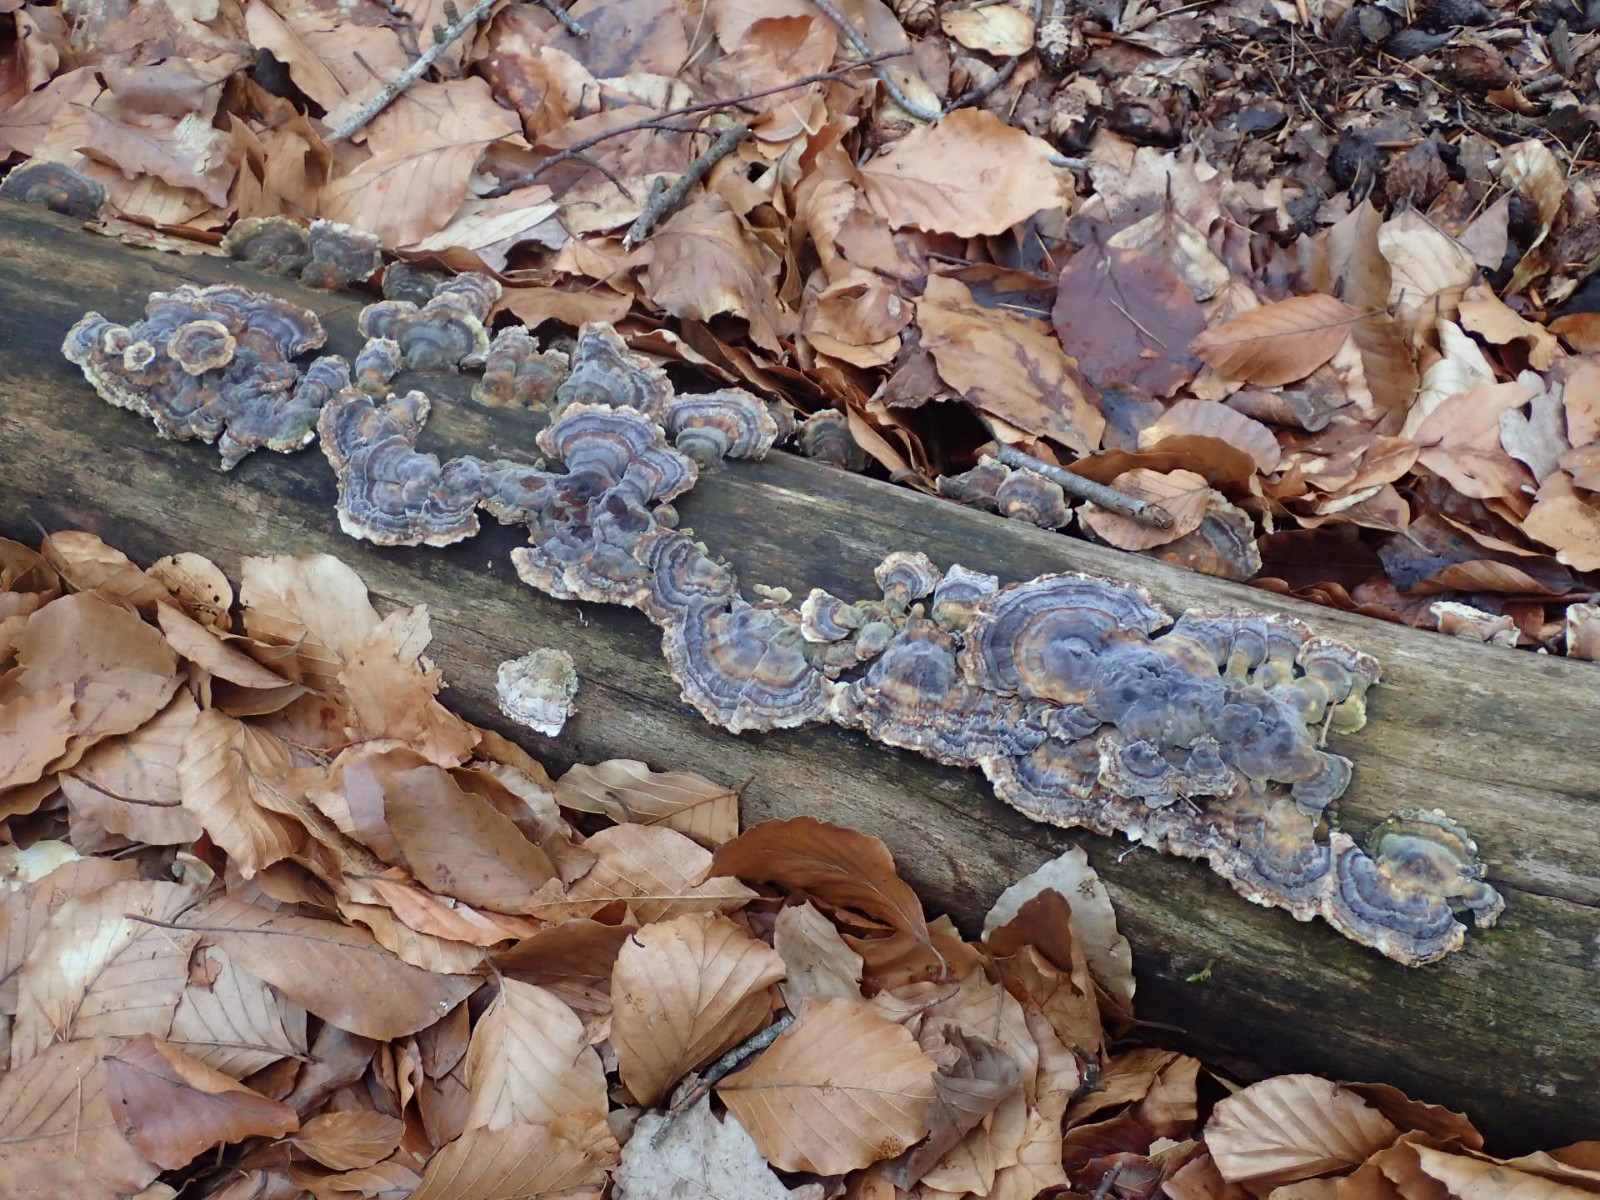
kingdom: Fungi
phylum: Basidiomycota
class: Agaricomycetes
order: Polyporales
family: Polyporaceae
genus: Trametes
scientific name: Trametes versicolor
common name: broget læderporesvamp
